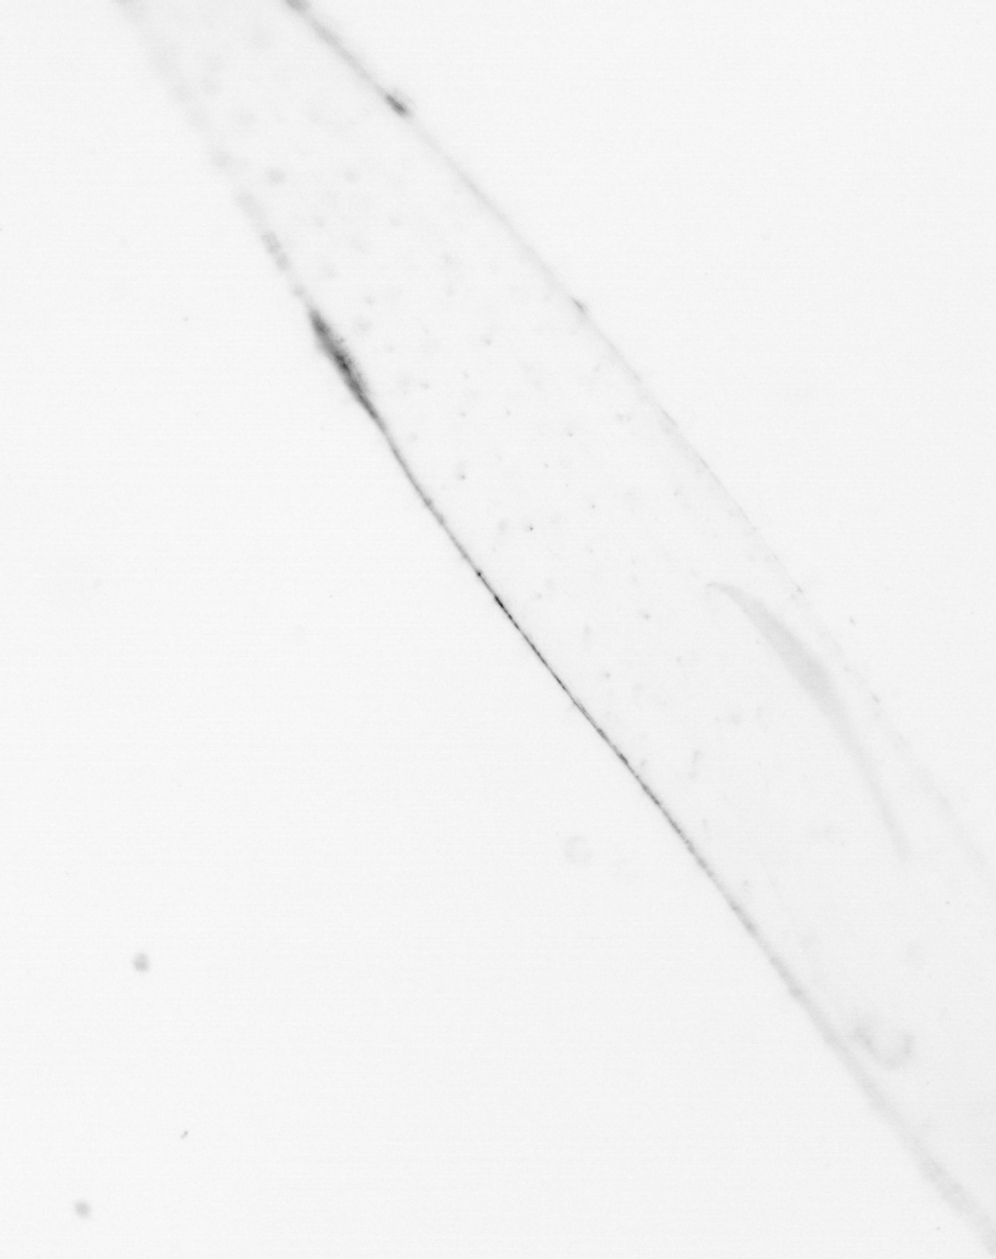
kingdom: Chromista
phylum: Ochrophyta
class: Bacillariophyceae
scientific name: Bacillariophyceae
